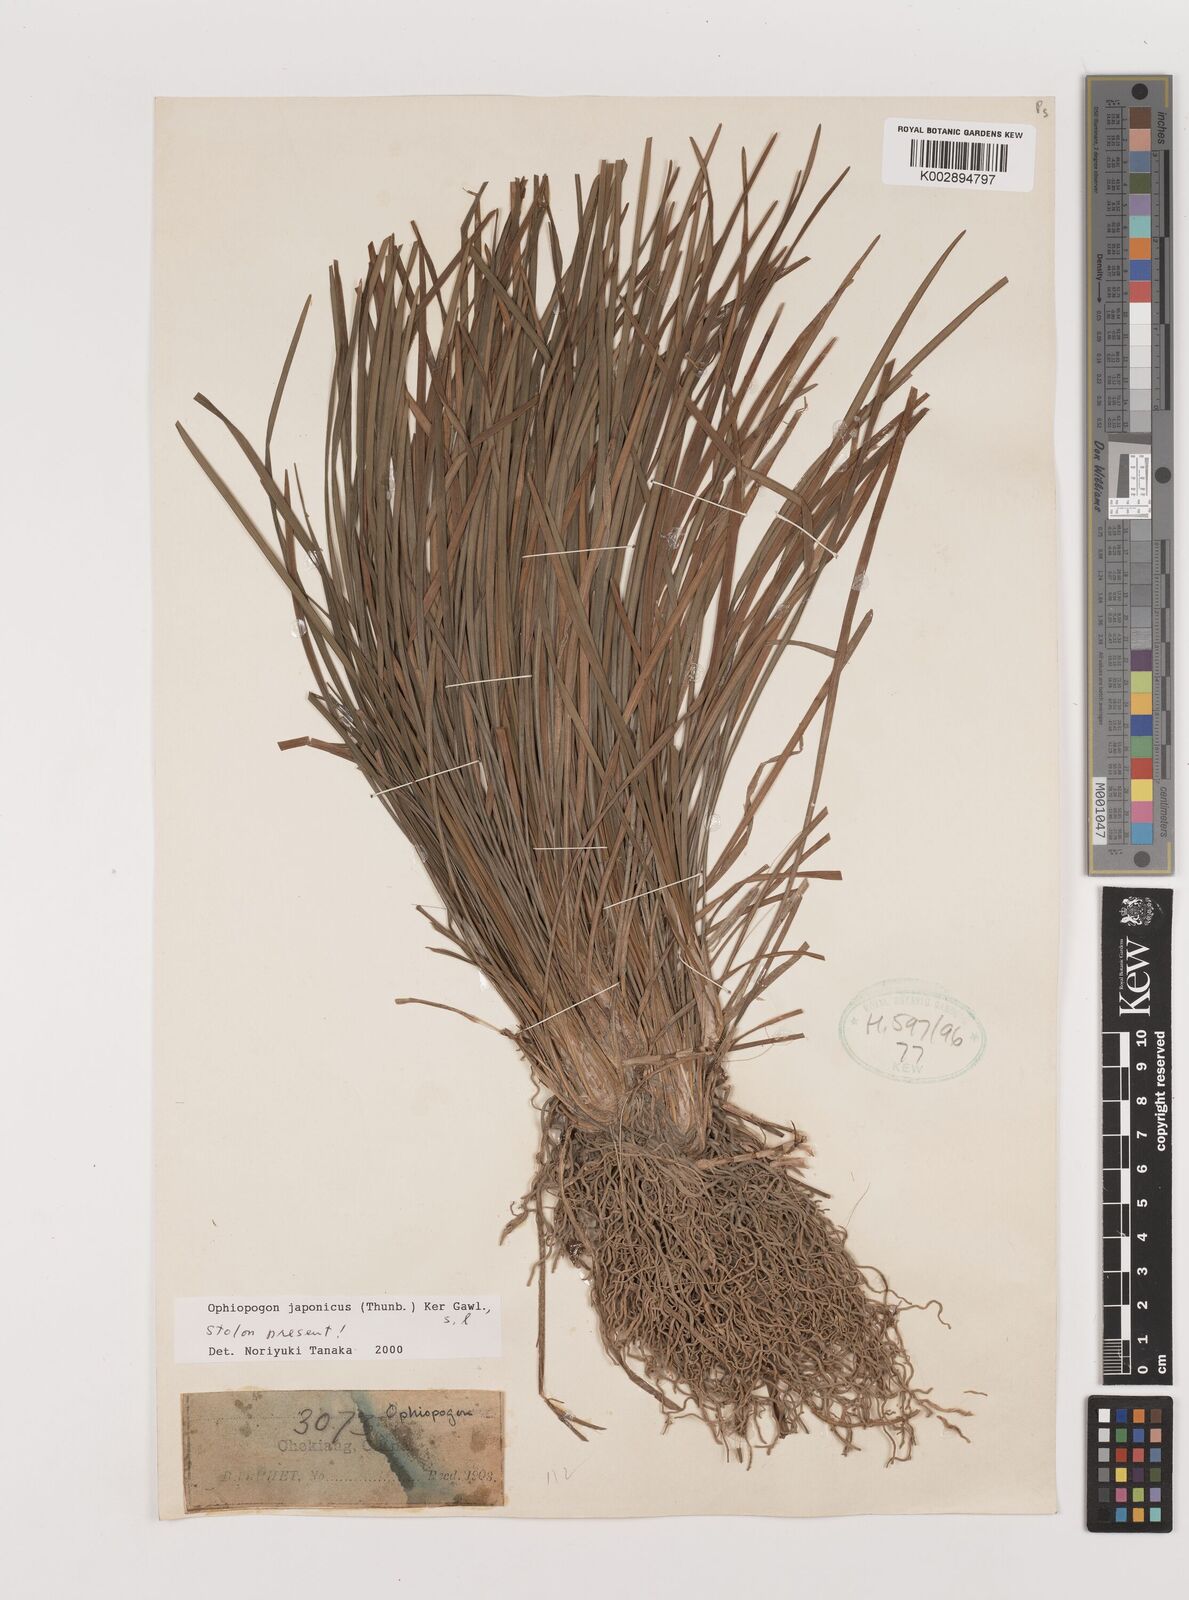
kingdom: Plantae
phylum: Tracheophyta
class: Liliopsida
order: Asparagales
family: Asparagaceae
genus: Ophiopogon
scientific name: Ophiopogon japonicus
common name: Dwarf lilyturf
